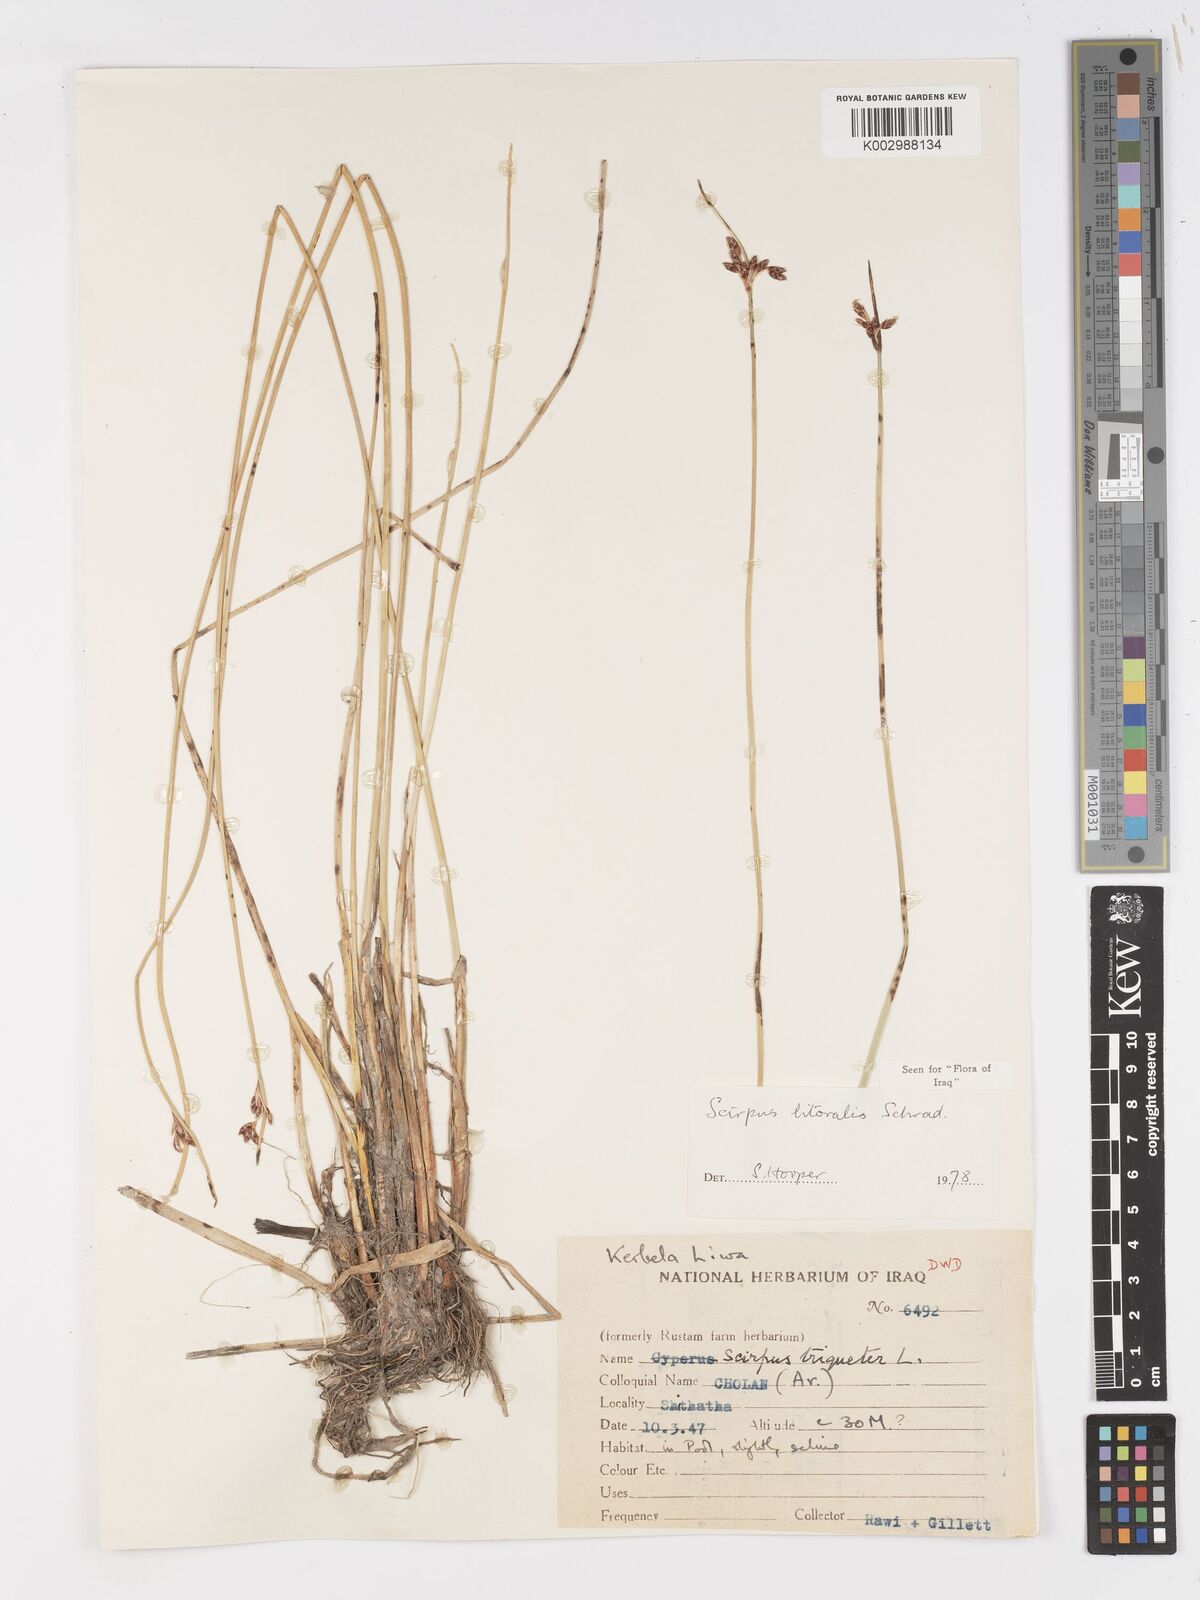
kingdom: Plantae
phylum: Tracheophyta
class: Liliopsida
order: Poales
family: Cyperaceae
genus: Schoenoplectus
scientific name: Schoenoplectus litoralis
